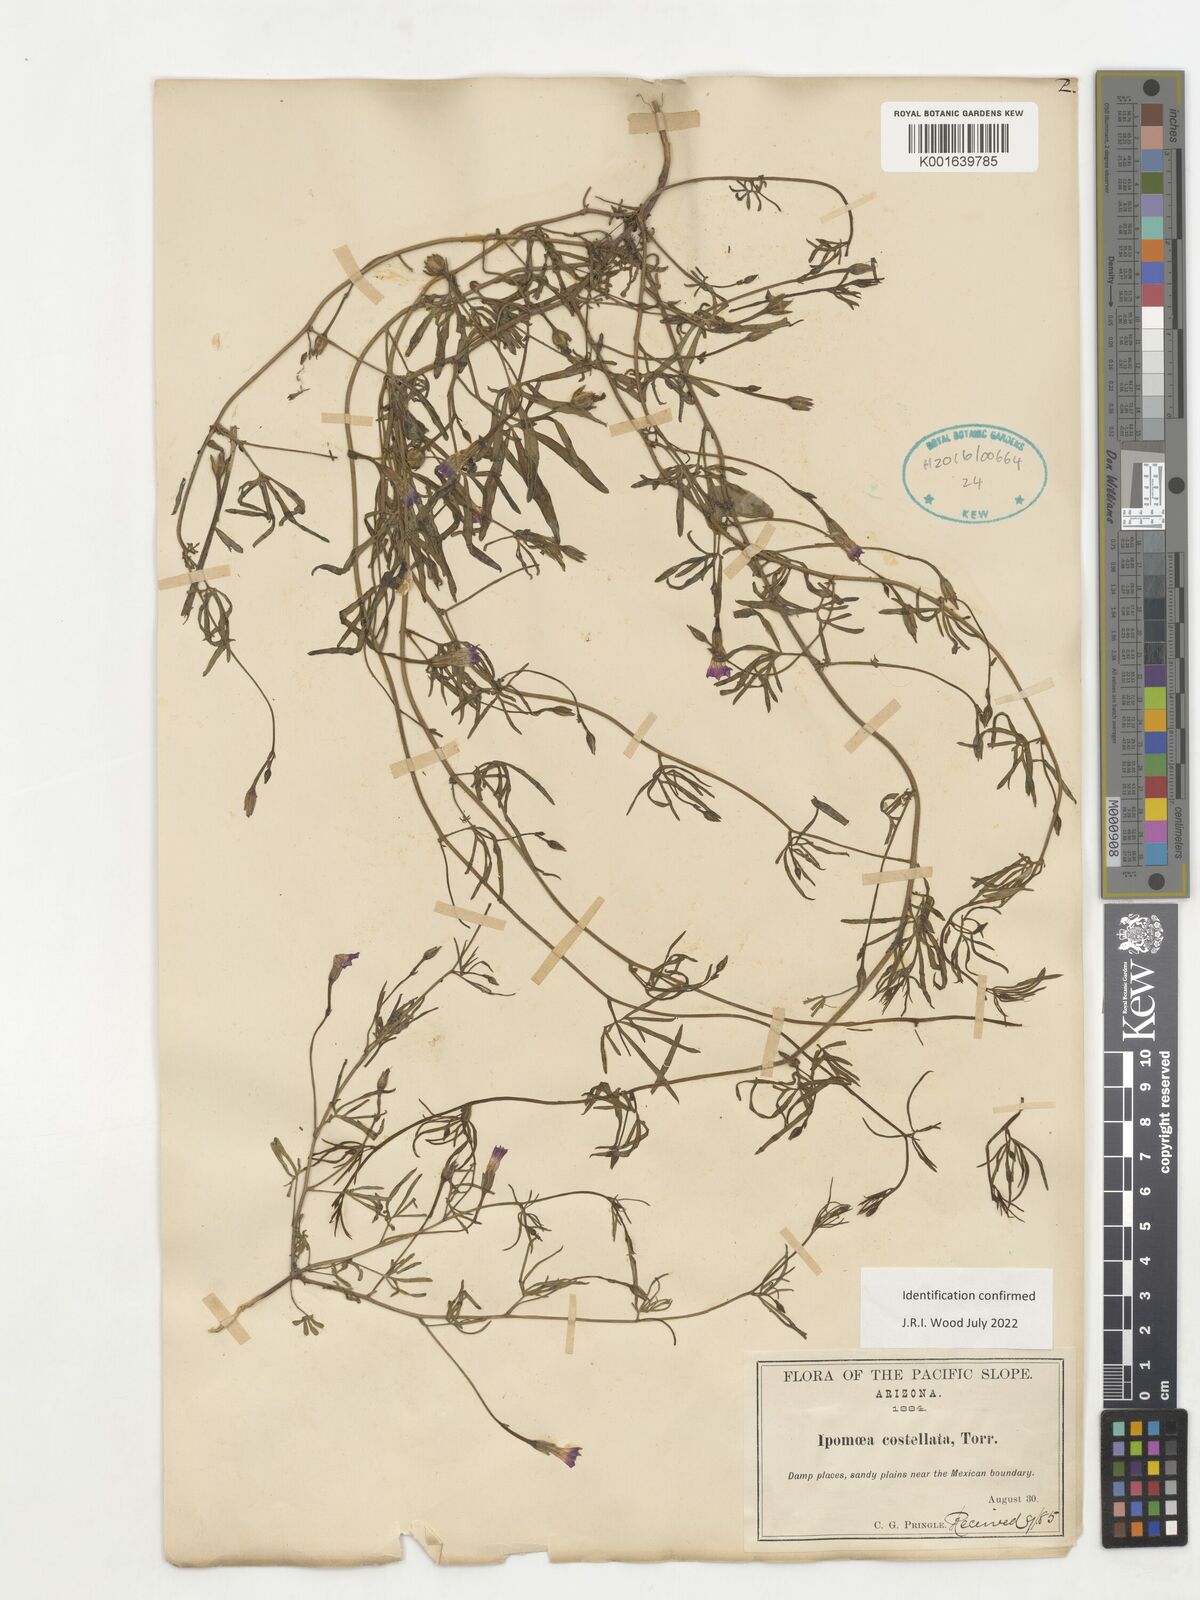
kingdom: Plantae
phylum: Tracheophyta
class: Magnoliopsida
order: Solanales
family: Convolvulaceae
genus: Ipomoea
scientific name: Ipomoea costellata
